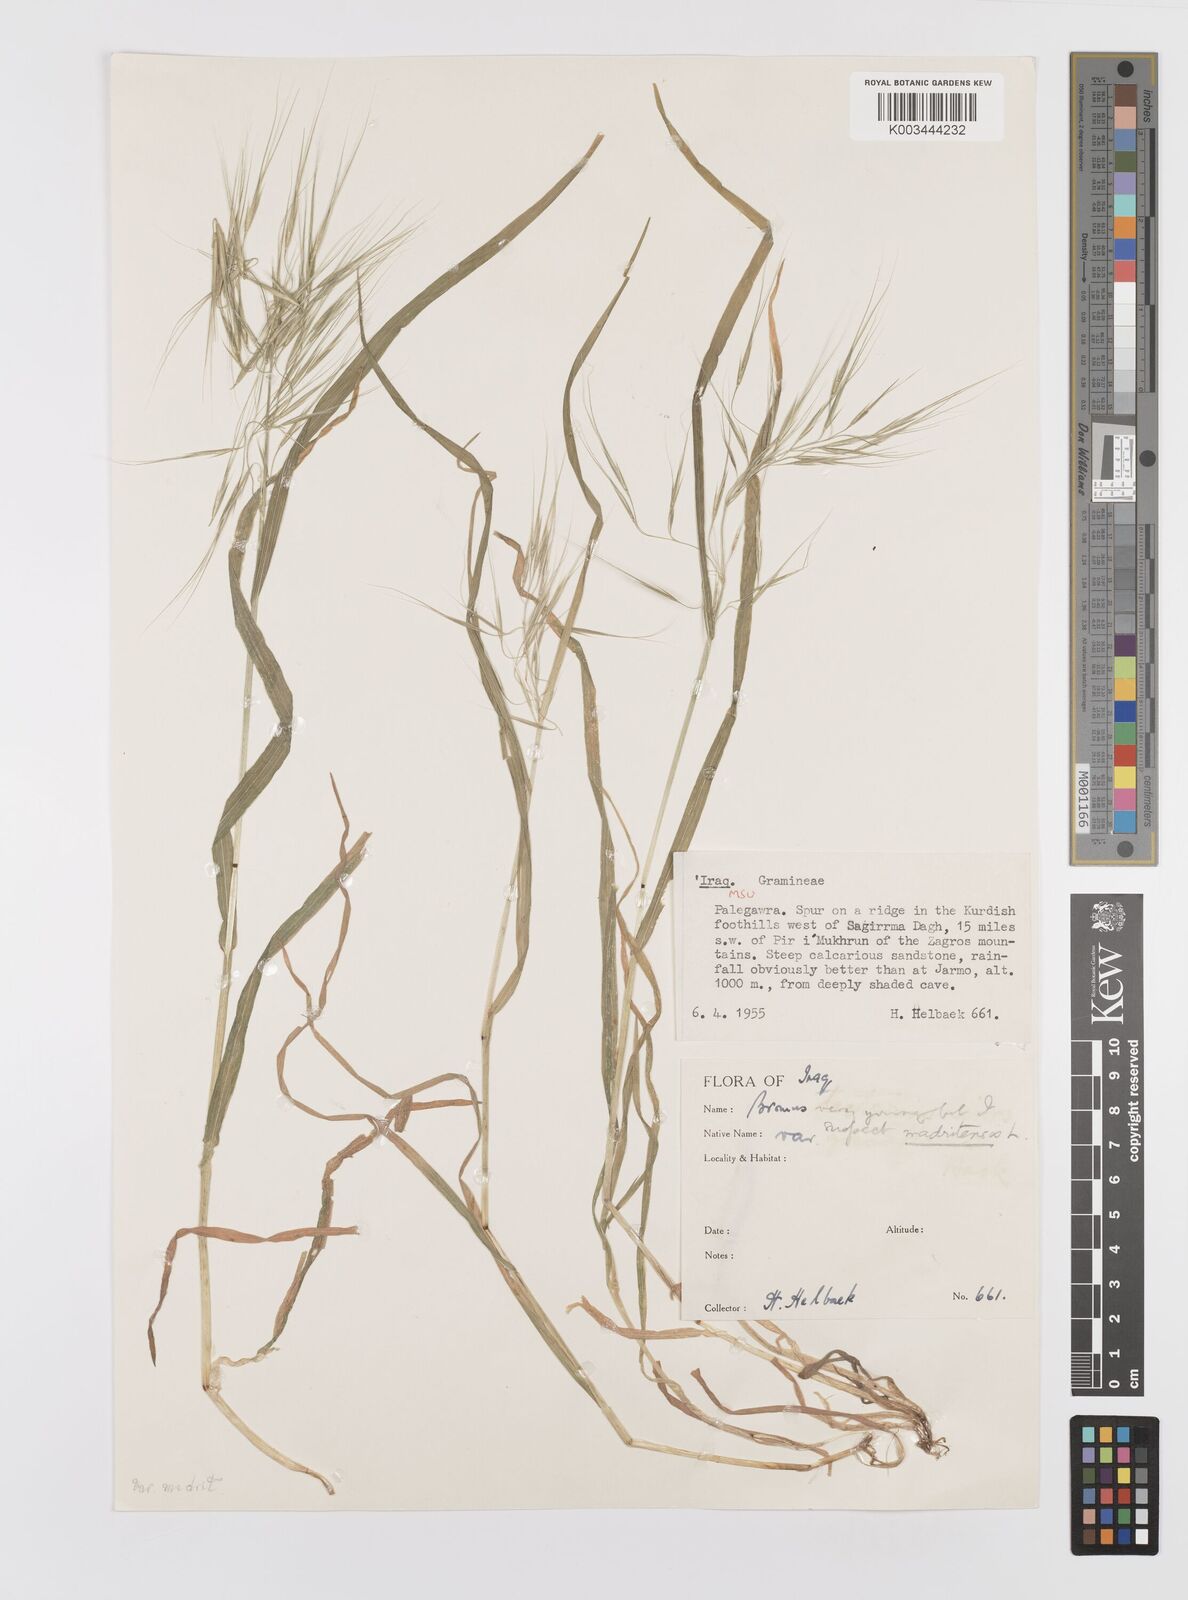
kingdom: Plantae
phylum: Tracheophyta
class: Liliopsida
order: Poales
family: Poaceae
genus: Bromus
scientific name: Bromus madritensis
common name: Compact brome
